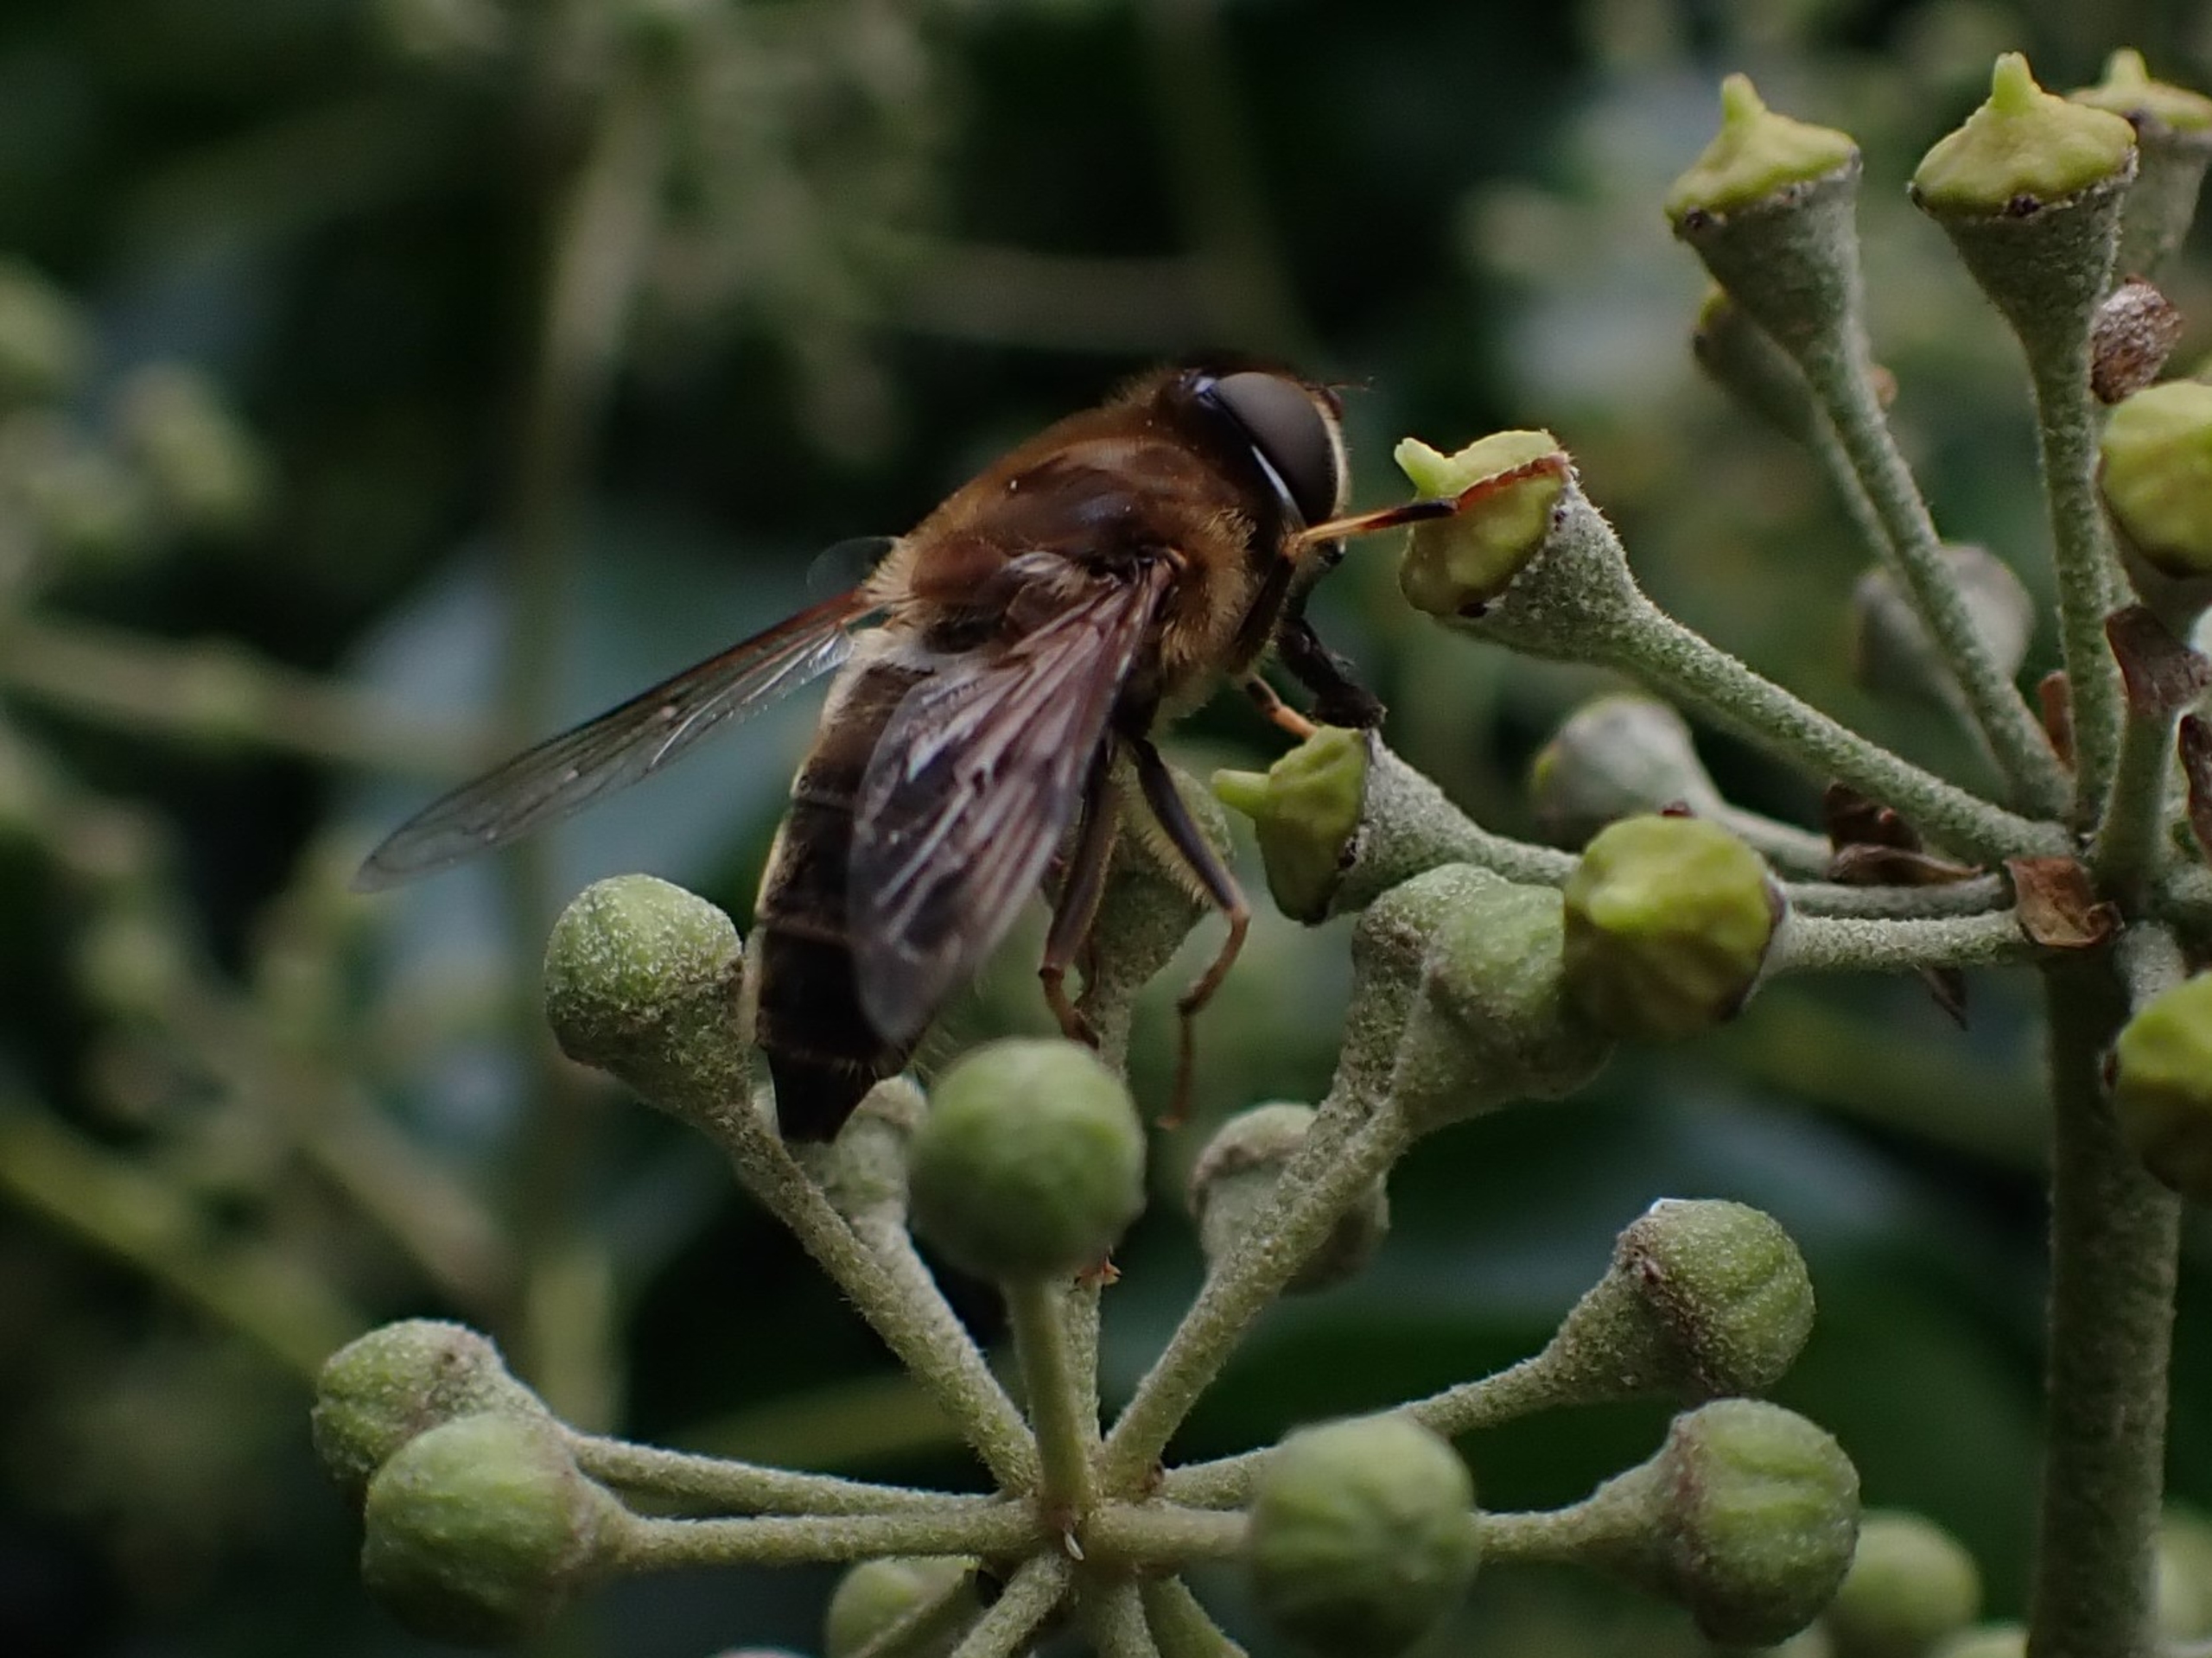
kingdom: Animalia
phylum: Arthropoda
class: Insecta
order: Diptera
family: Syrphidae
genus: Eristalis
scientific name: Eristalis pertinax
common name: Gulfodet dyndflue
